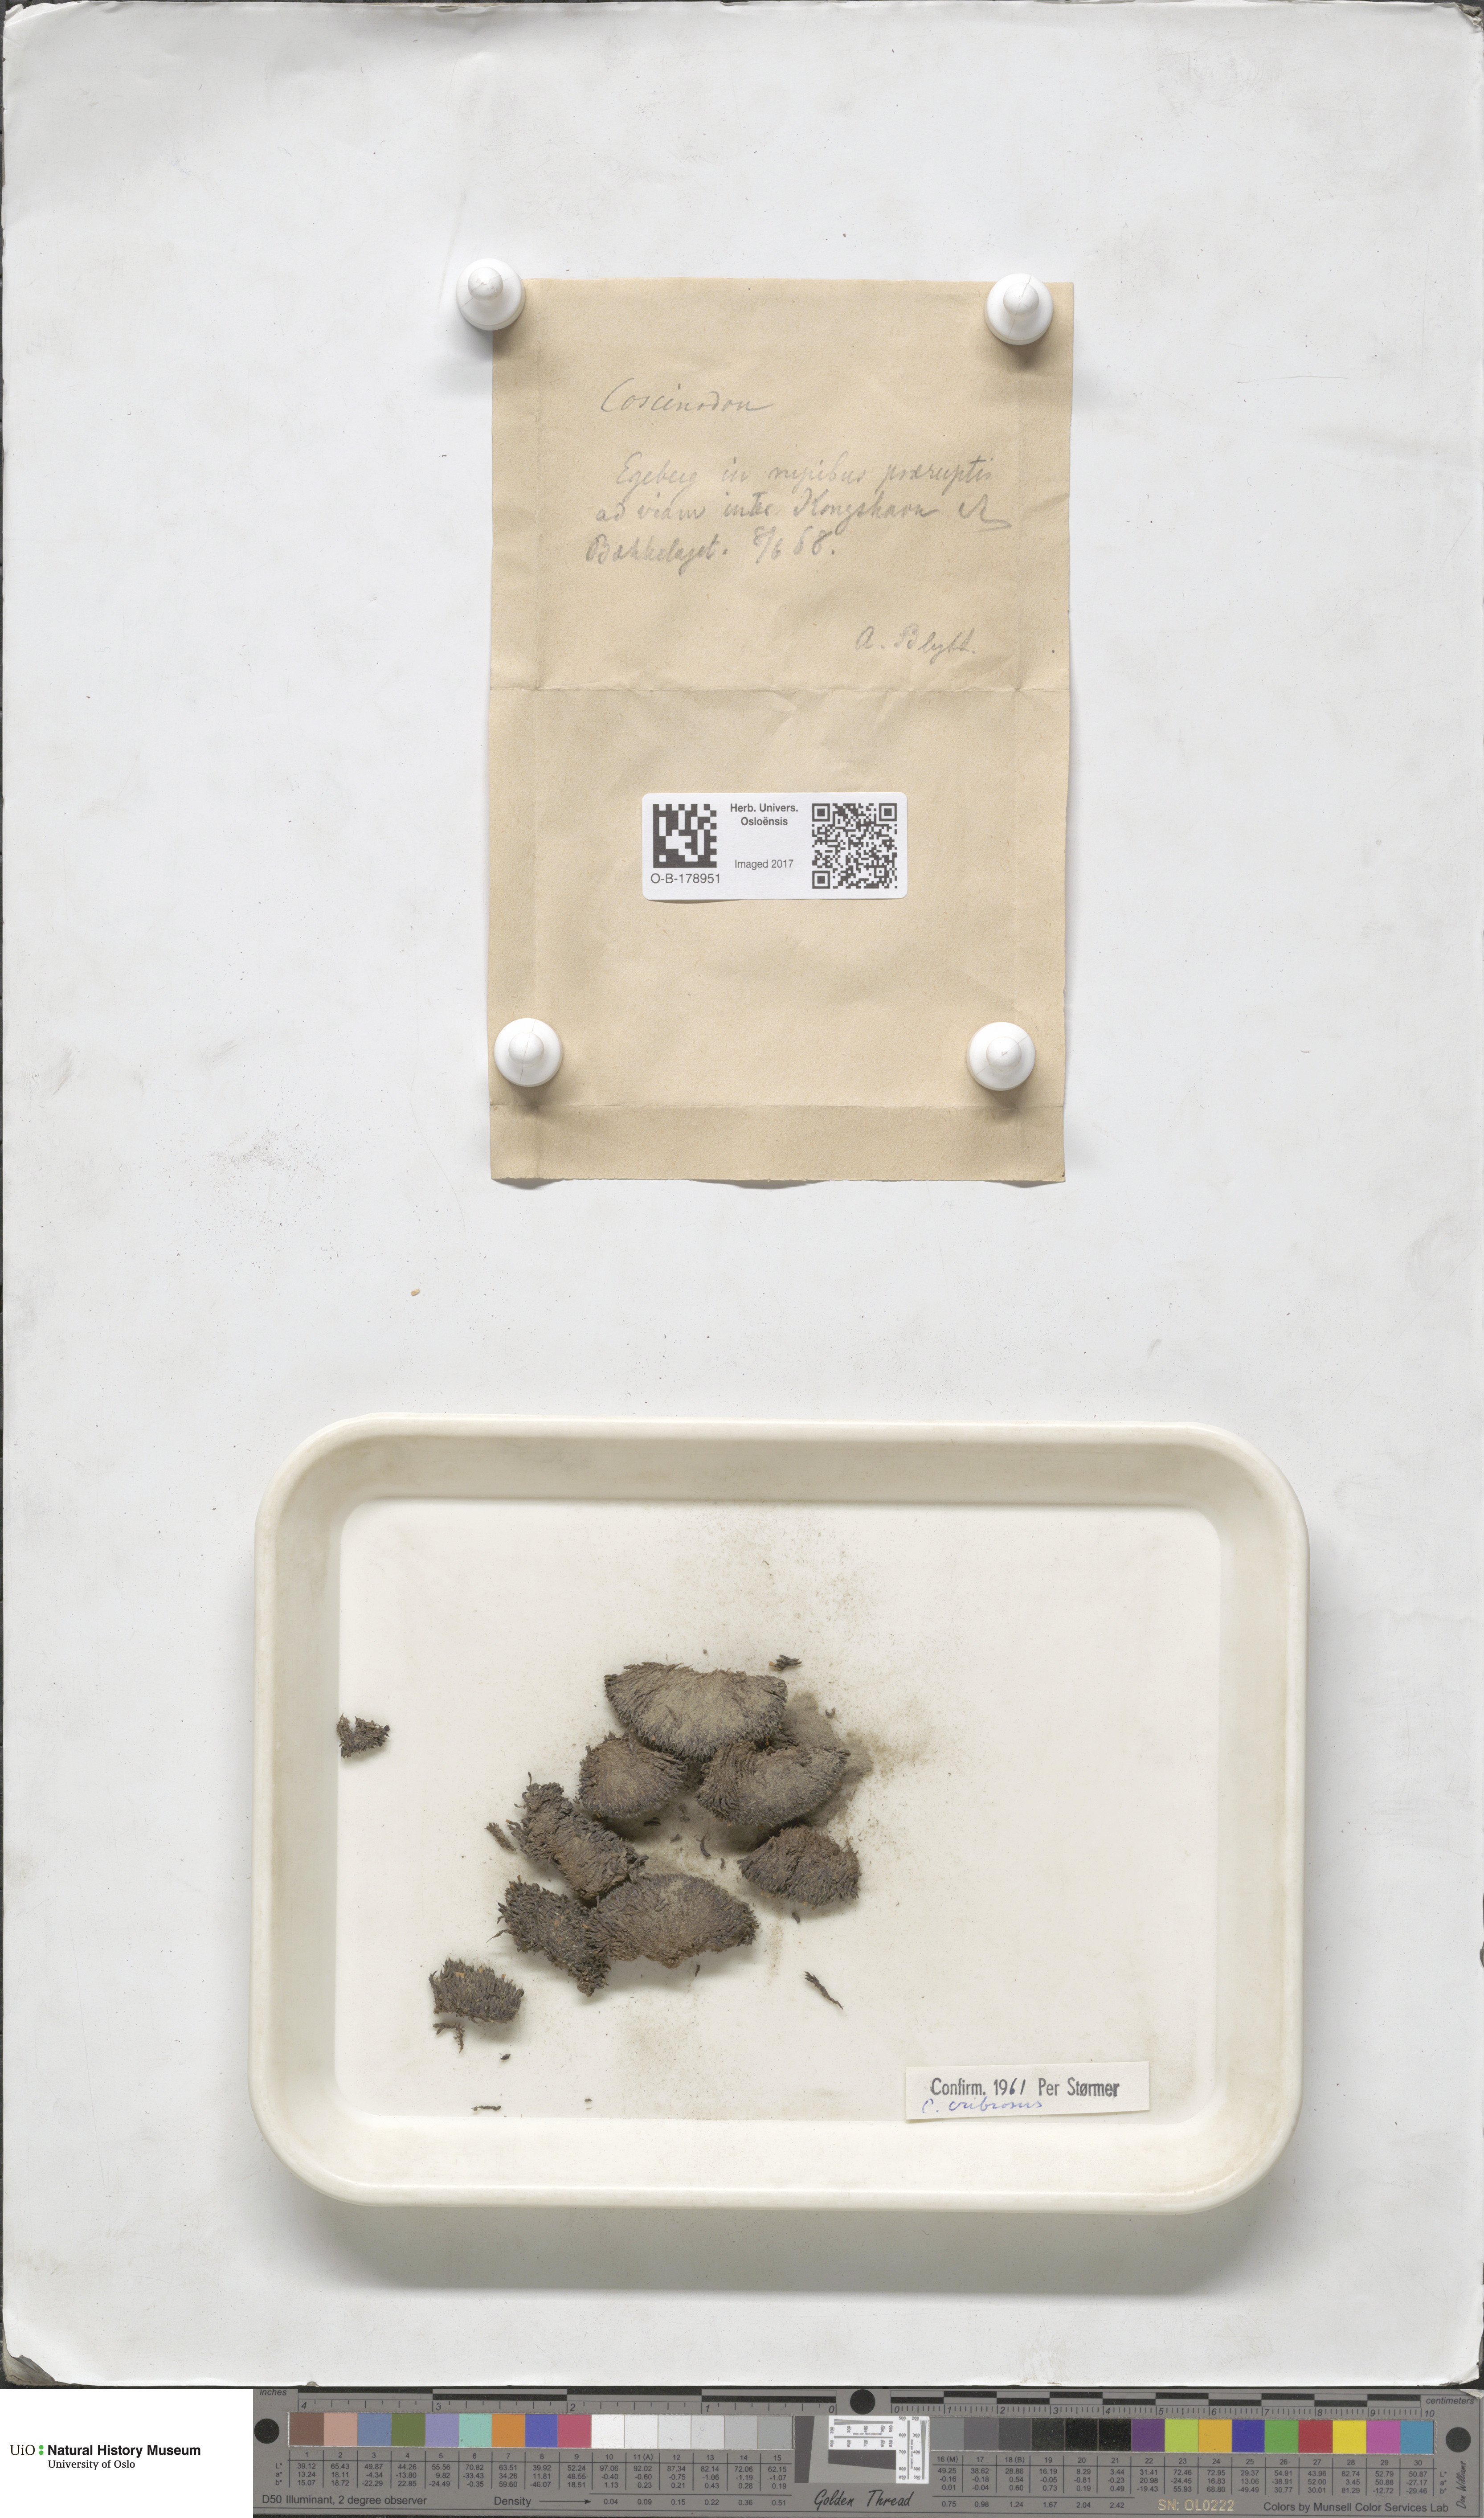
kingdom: Plantae
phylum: Bryophyta
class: Bryopsida
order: Bartramiales
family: Bartramiaceae
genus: Conostomum
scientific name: Conostomum tetragonum
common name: Helmet moss
